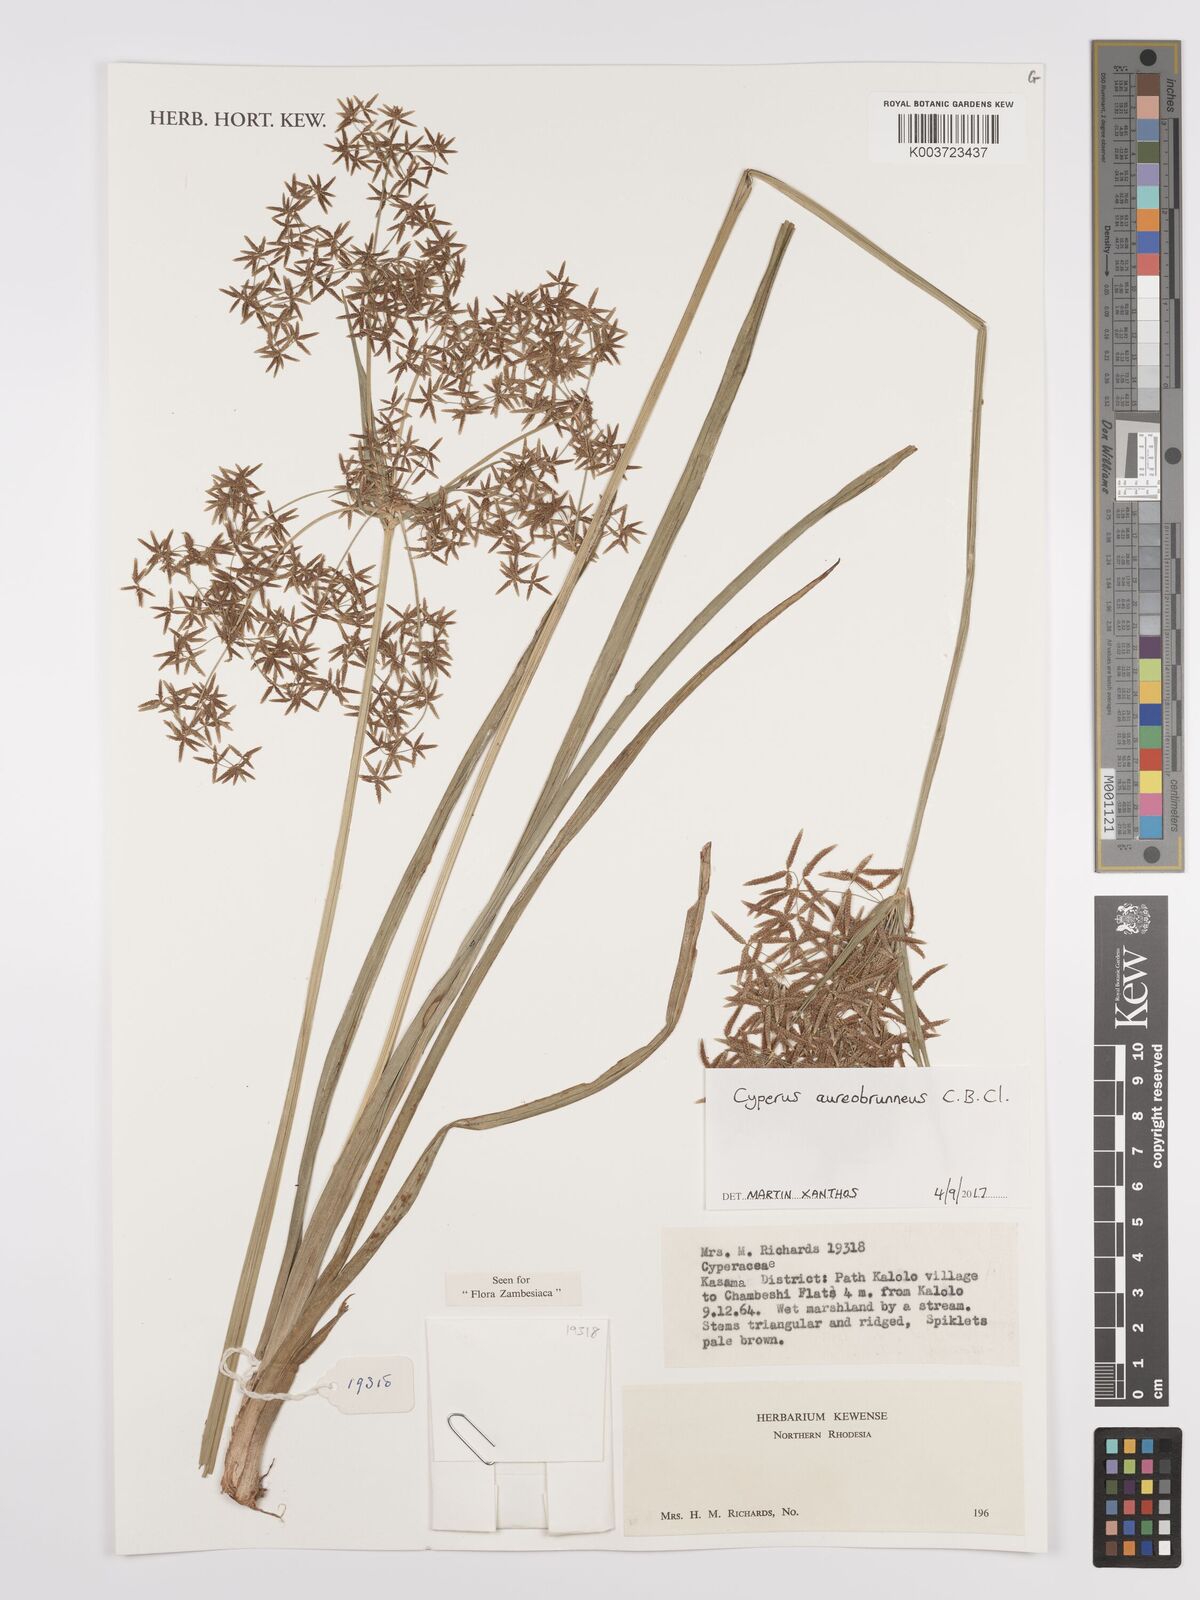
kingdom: Plantae
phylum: Tracheophyta
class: Liliopsida
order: Poales
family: Cyperaceae
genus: Cyperus
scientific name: Cyperus aureobrunneus
